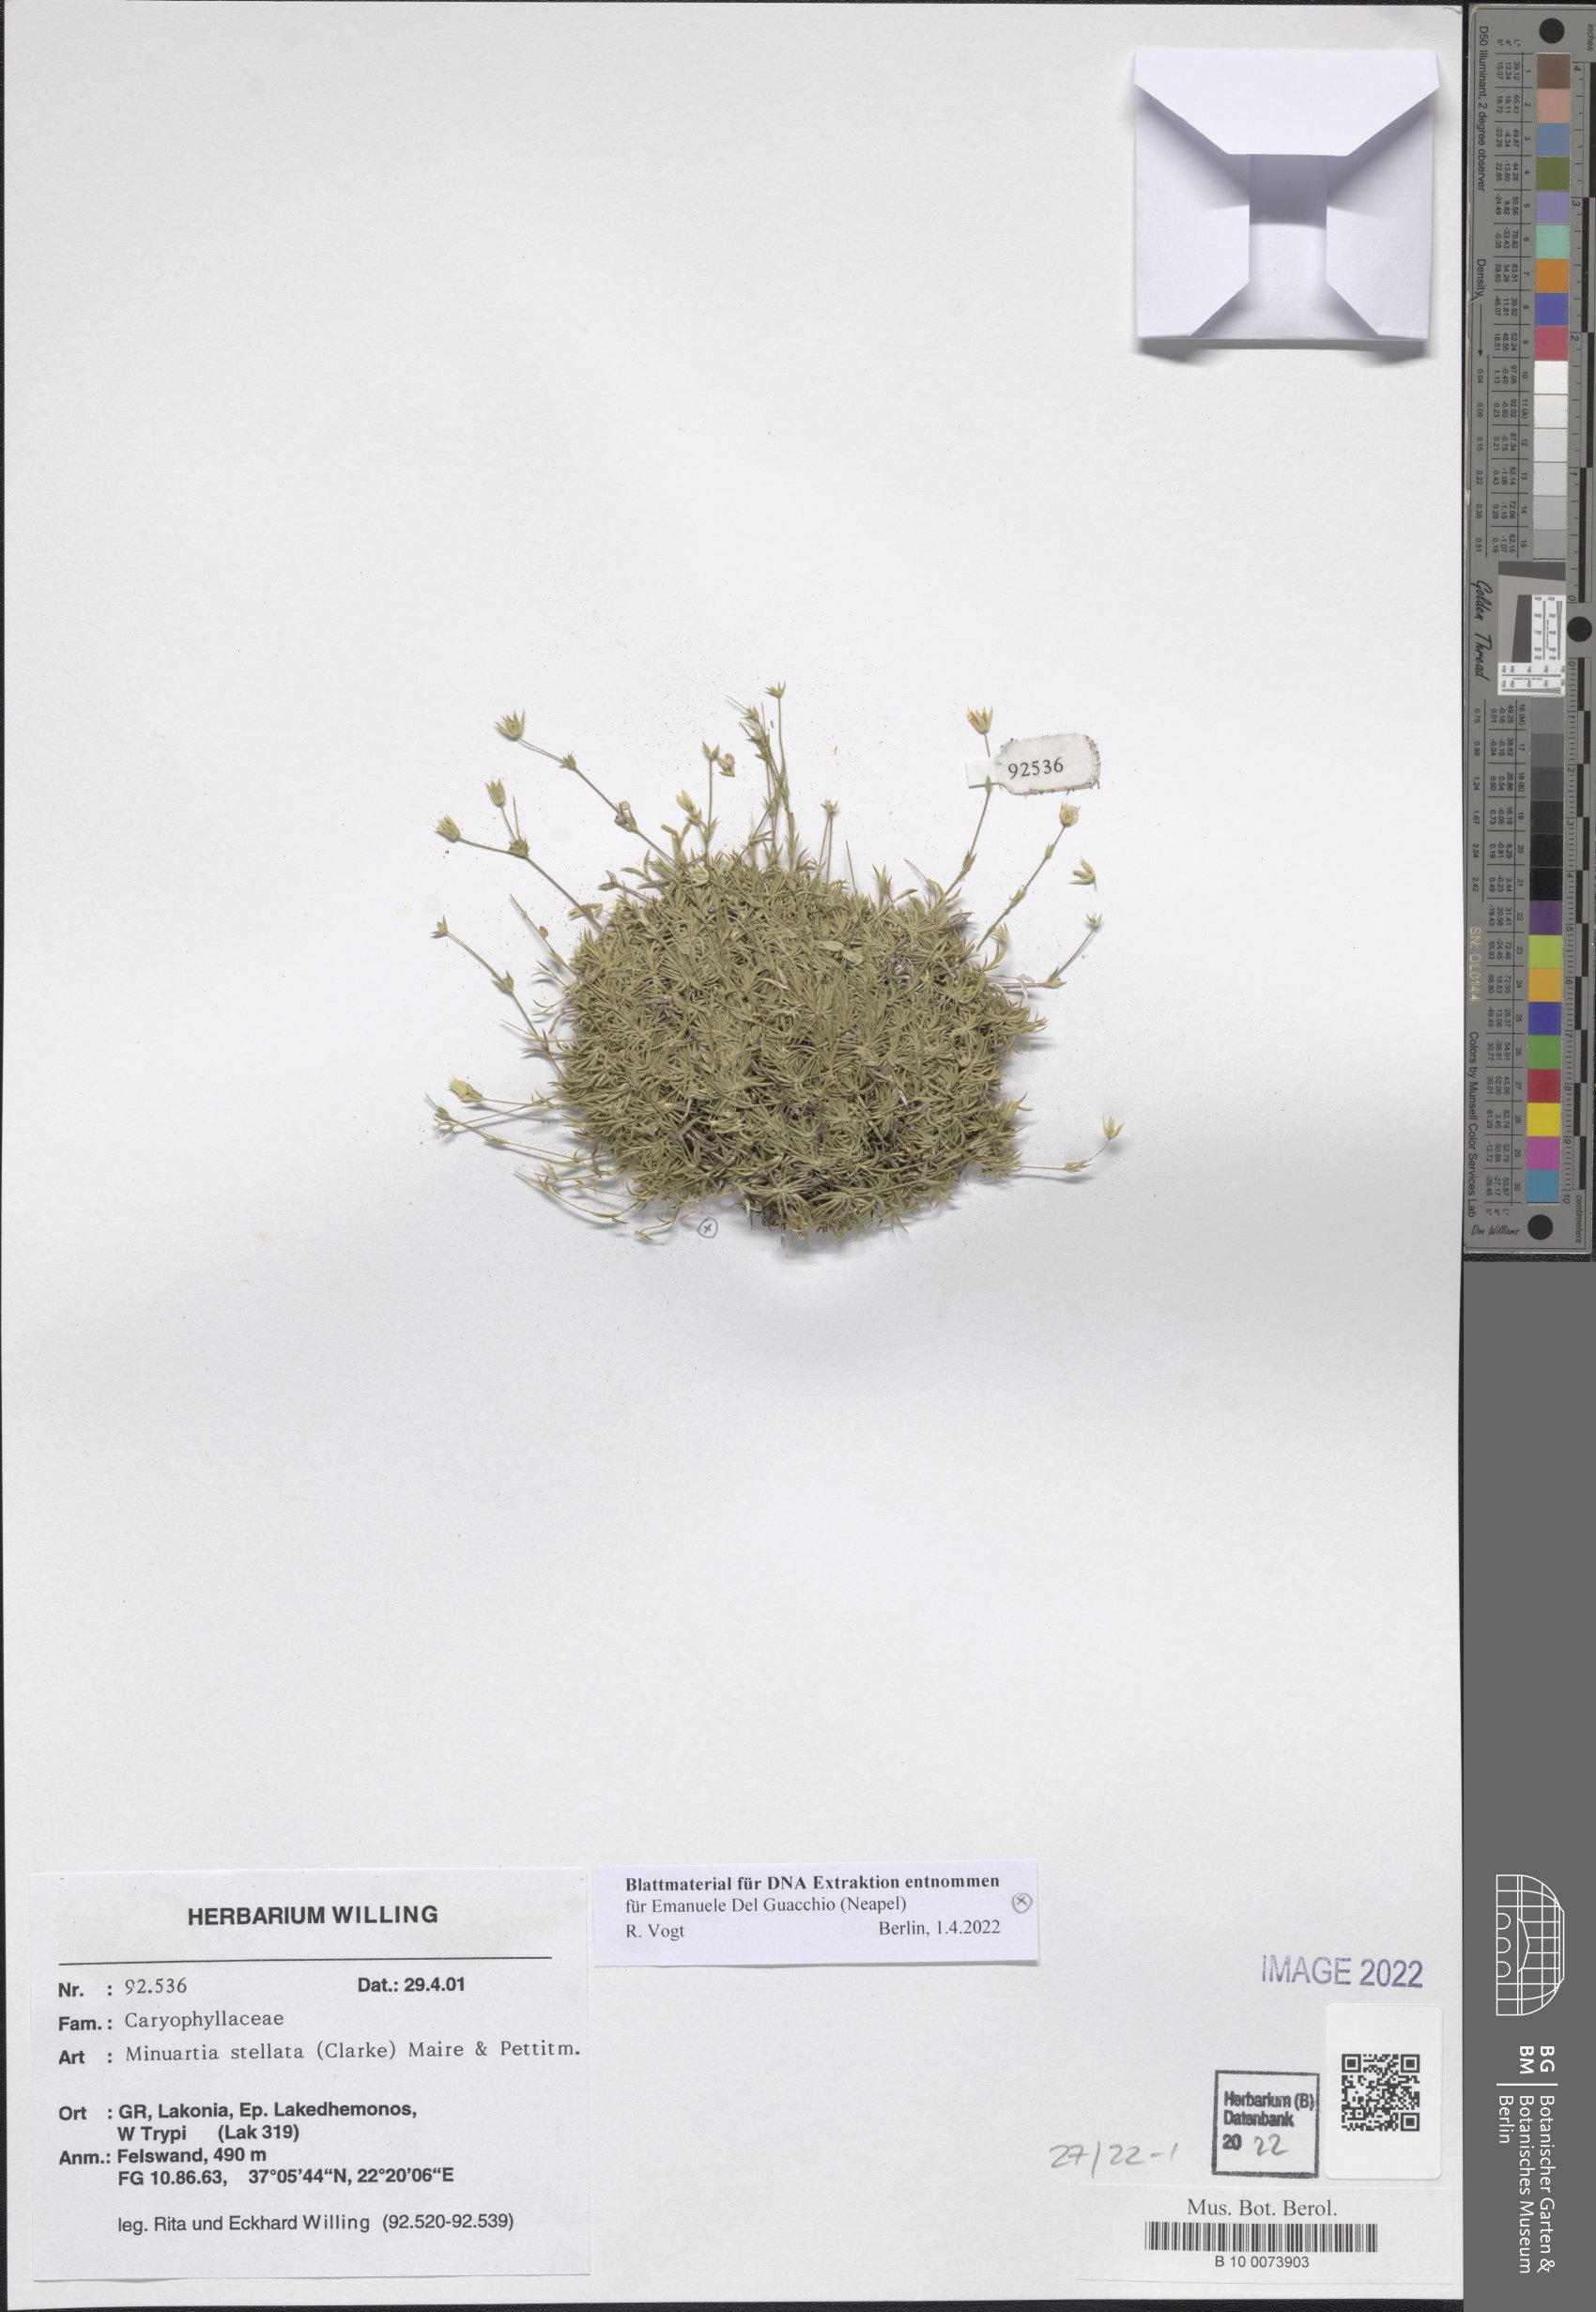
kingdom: Plantae
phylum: Tracheophyta
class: Magnoliopsida
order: Caryophyllales
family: Caryophyllaceae
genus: Mcneillia
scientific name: Mcneillia stellata
